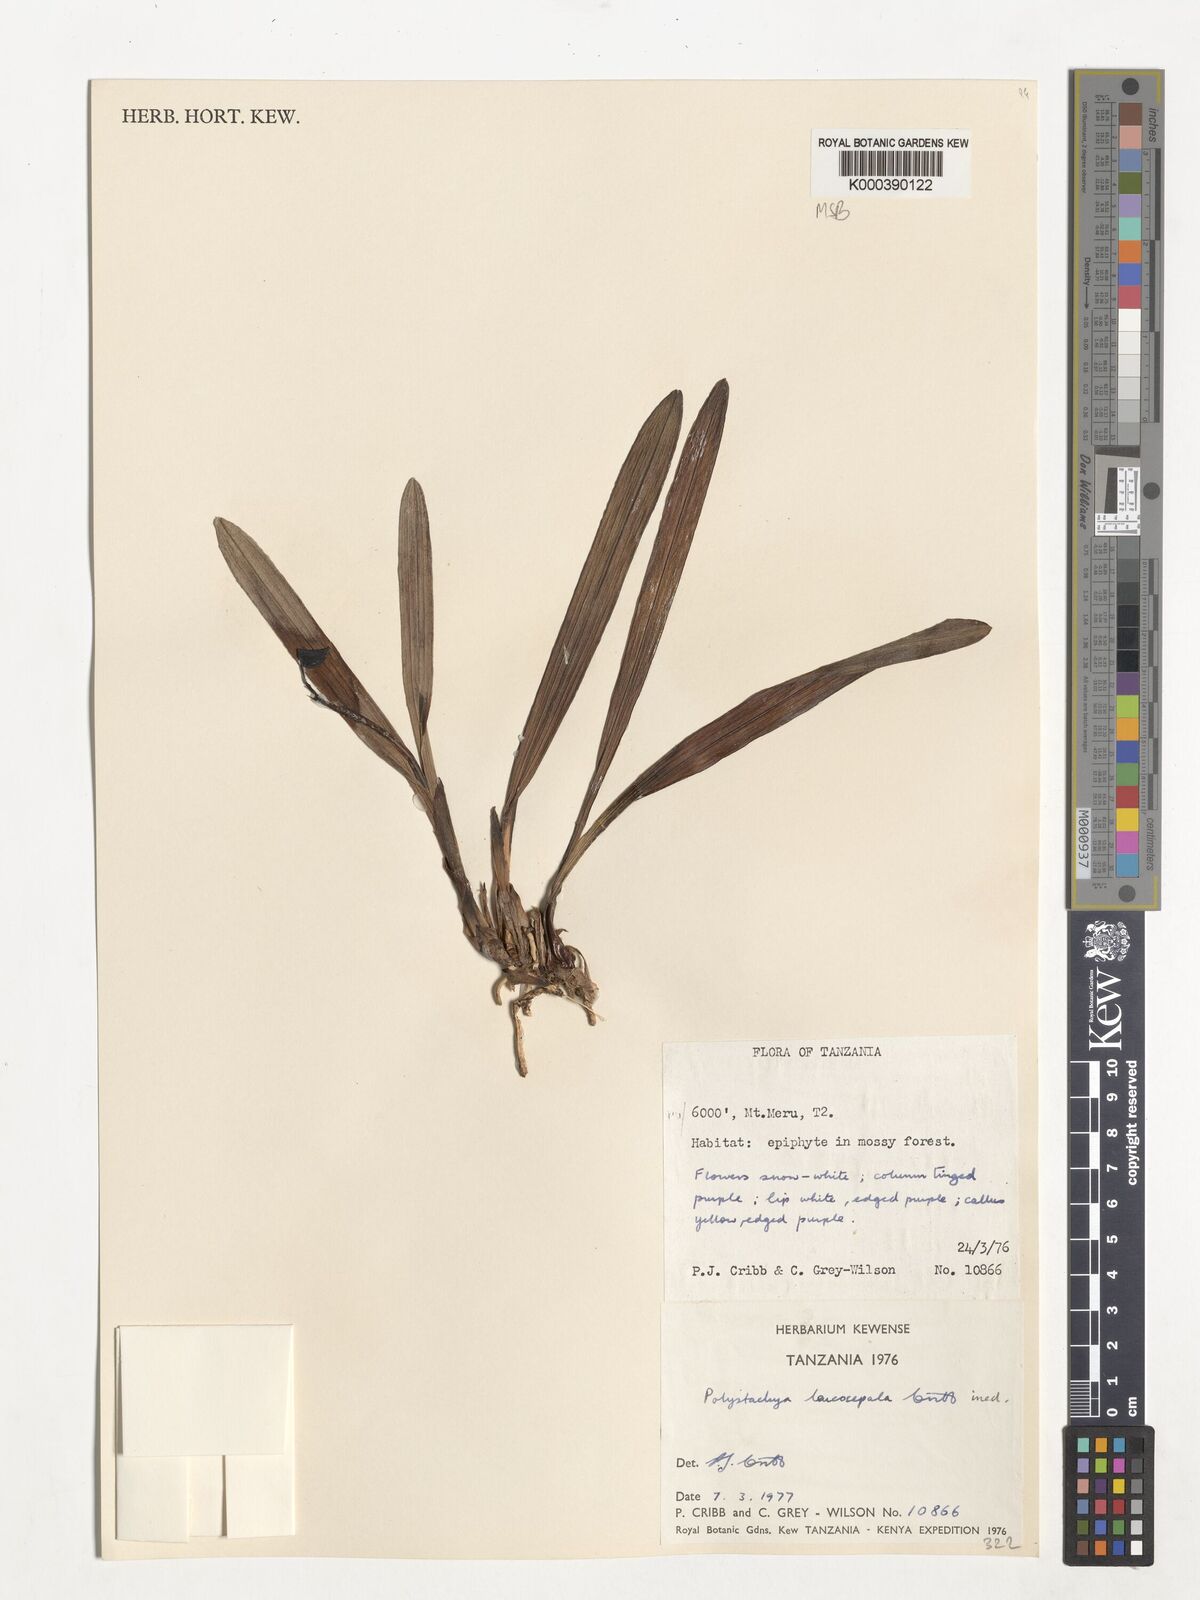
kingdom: Plantae
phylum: Tracheophyta
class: Liliopsida
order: Asparagales
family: Orchidaceae
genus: Polystachya
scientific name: Polystachya leucosepala
